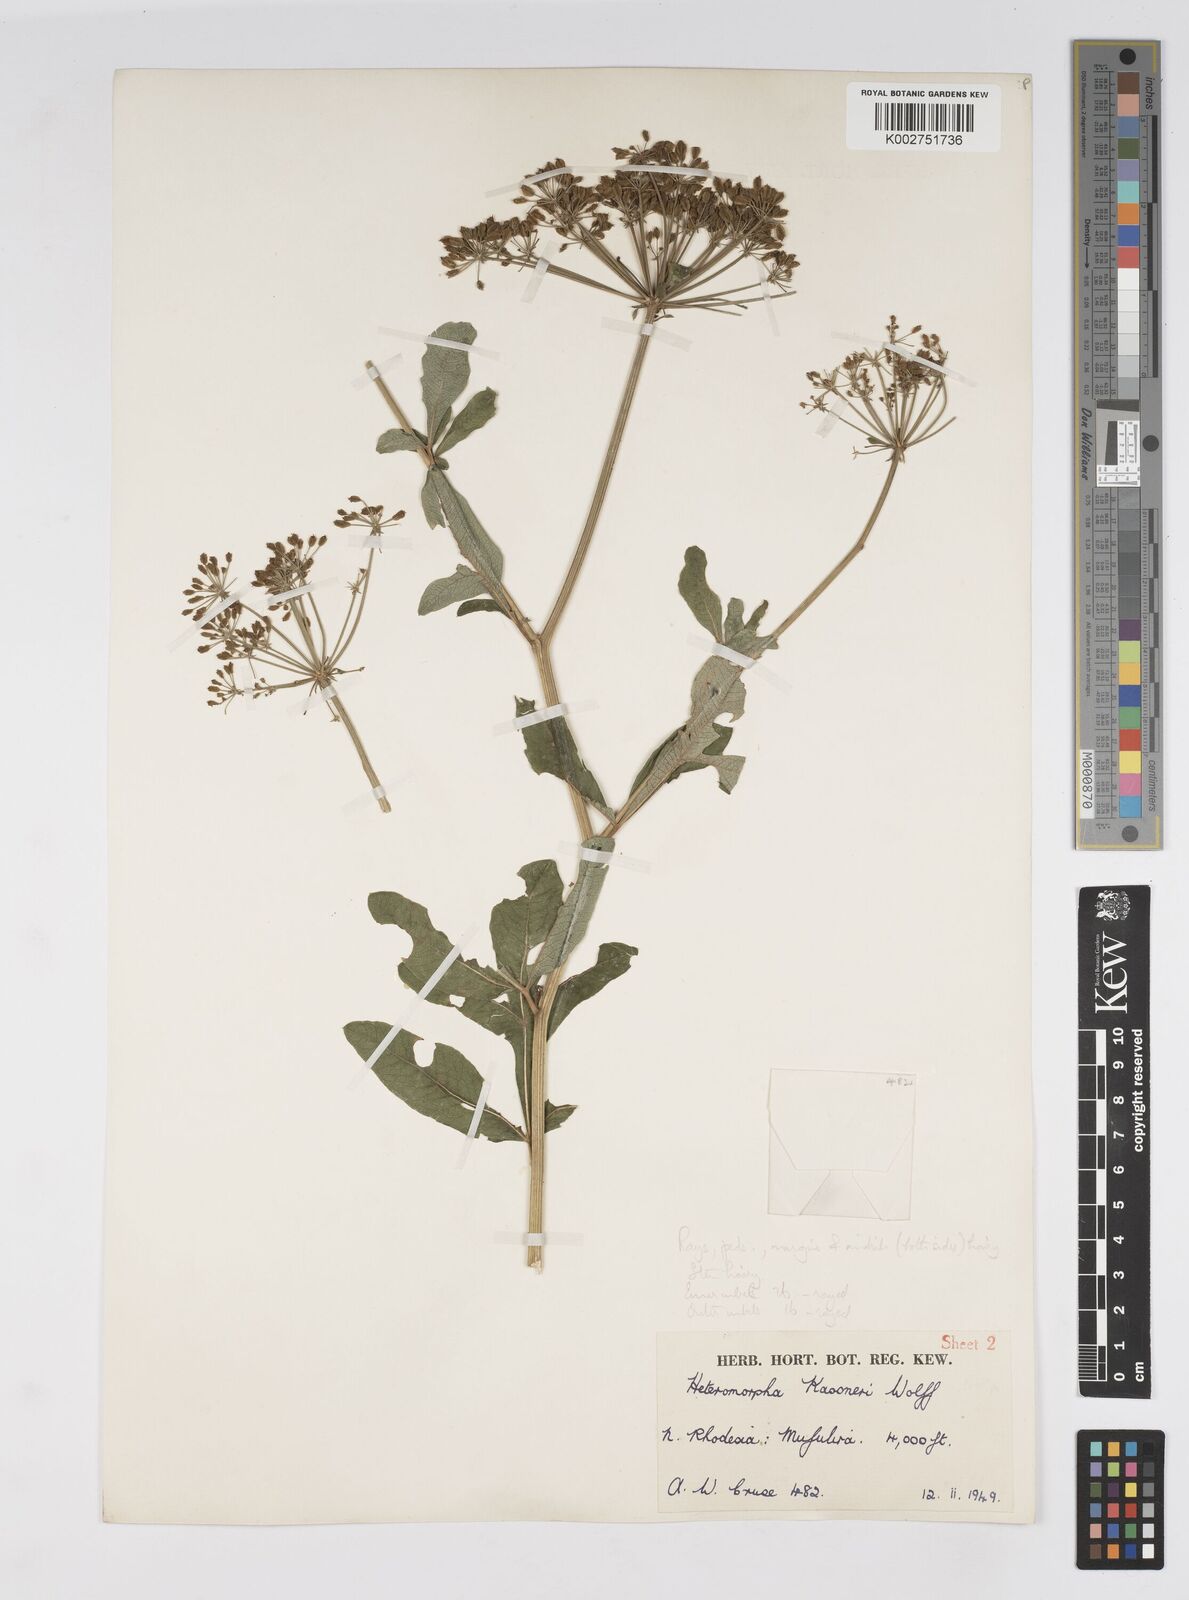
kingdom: Plantae
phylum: Tracheophyta
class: Magnoliopsida
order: Apiales
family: Apiaceae
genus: Heteromorpha
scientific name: Heteromorpha involucrata
